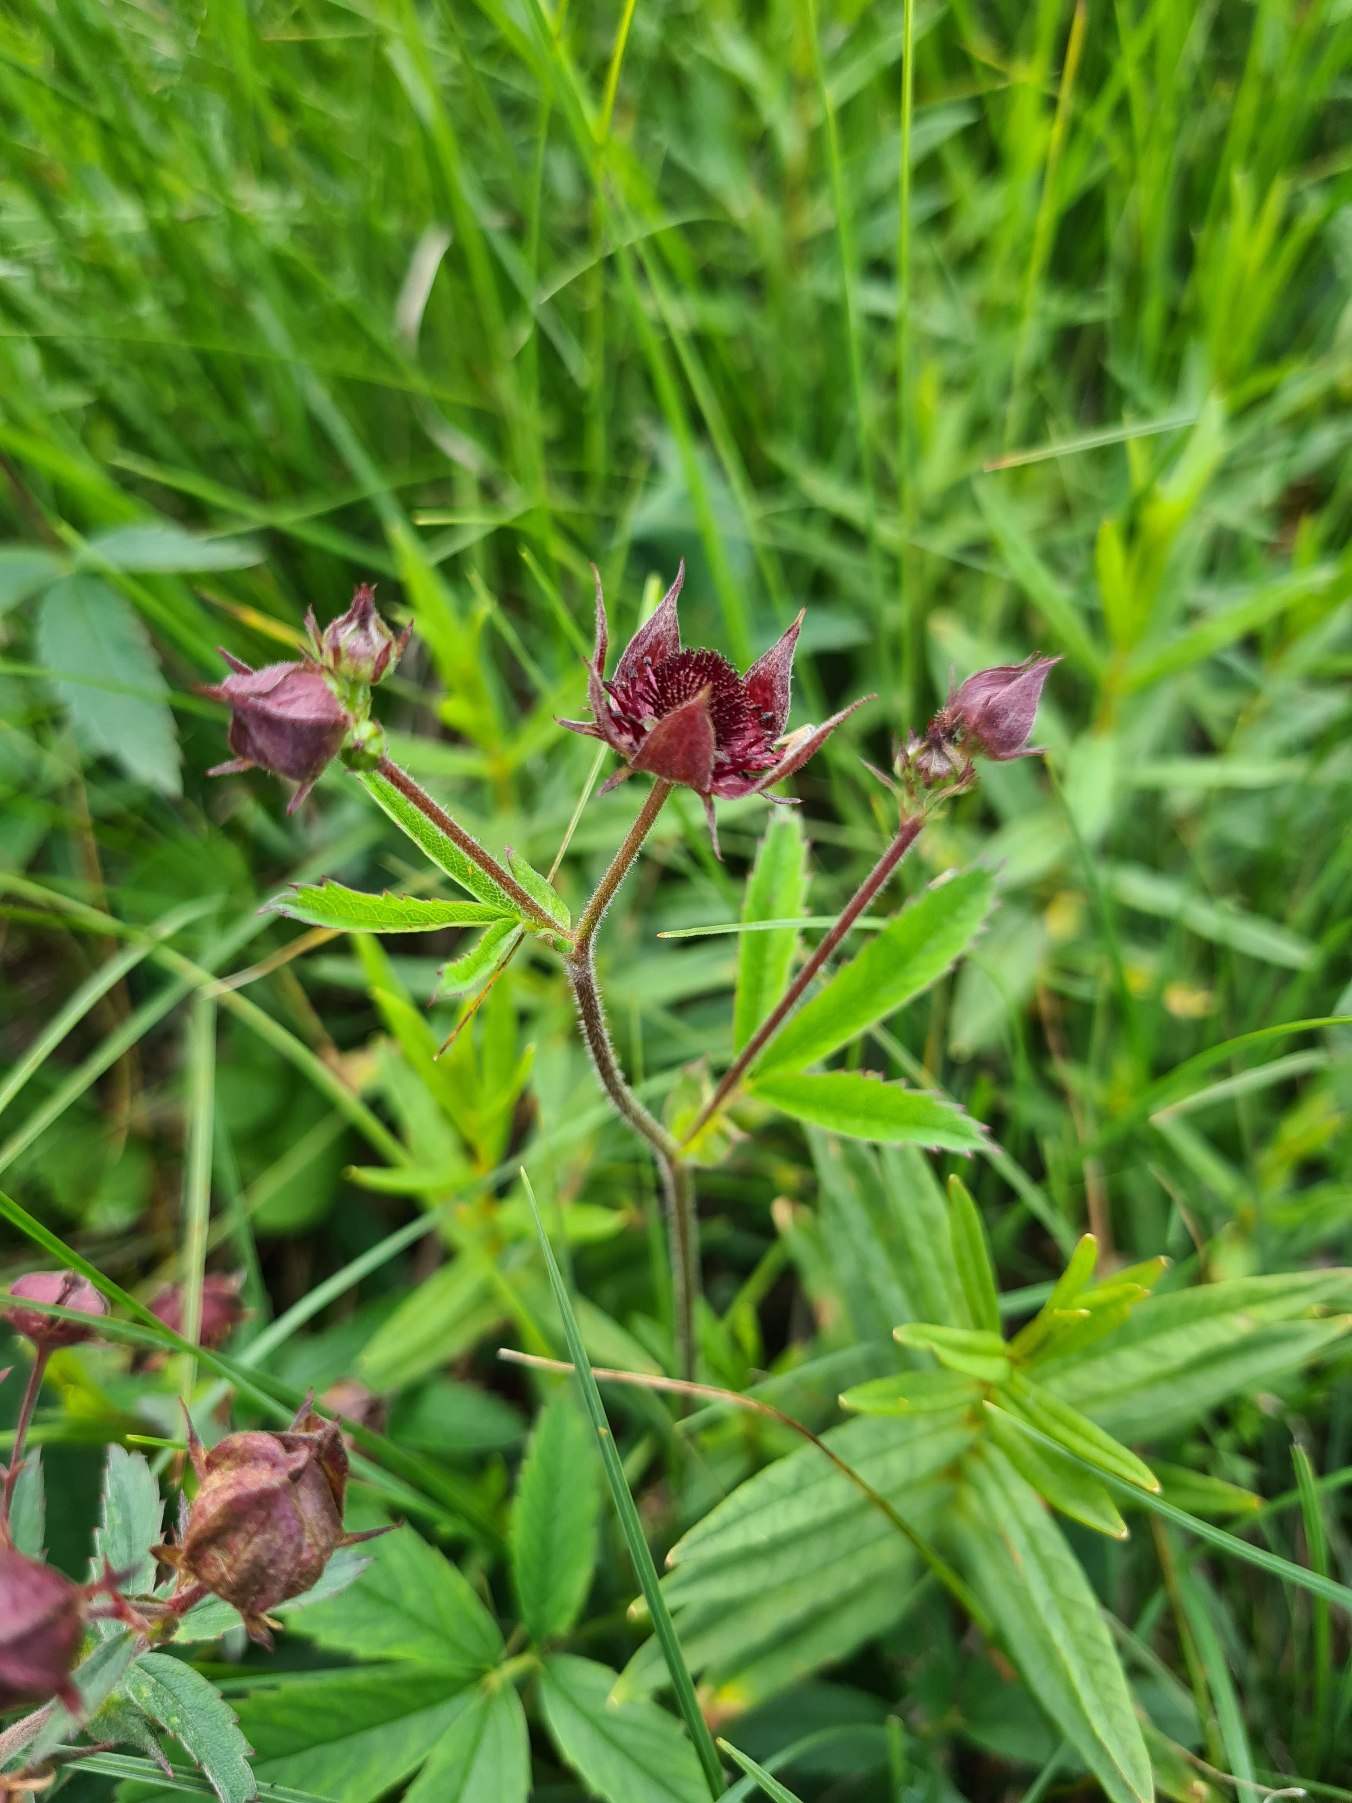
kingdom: Plantae
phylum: Tracheophyta
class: Magnoliopsida
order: Rosales
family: Rosaceae
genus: Comarum
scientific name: Comarum palustre
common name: Kragefod
